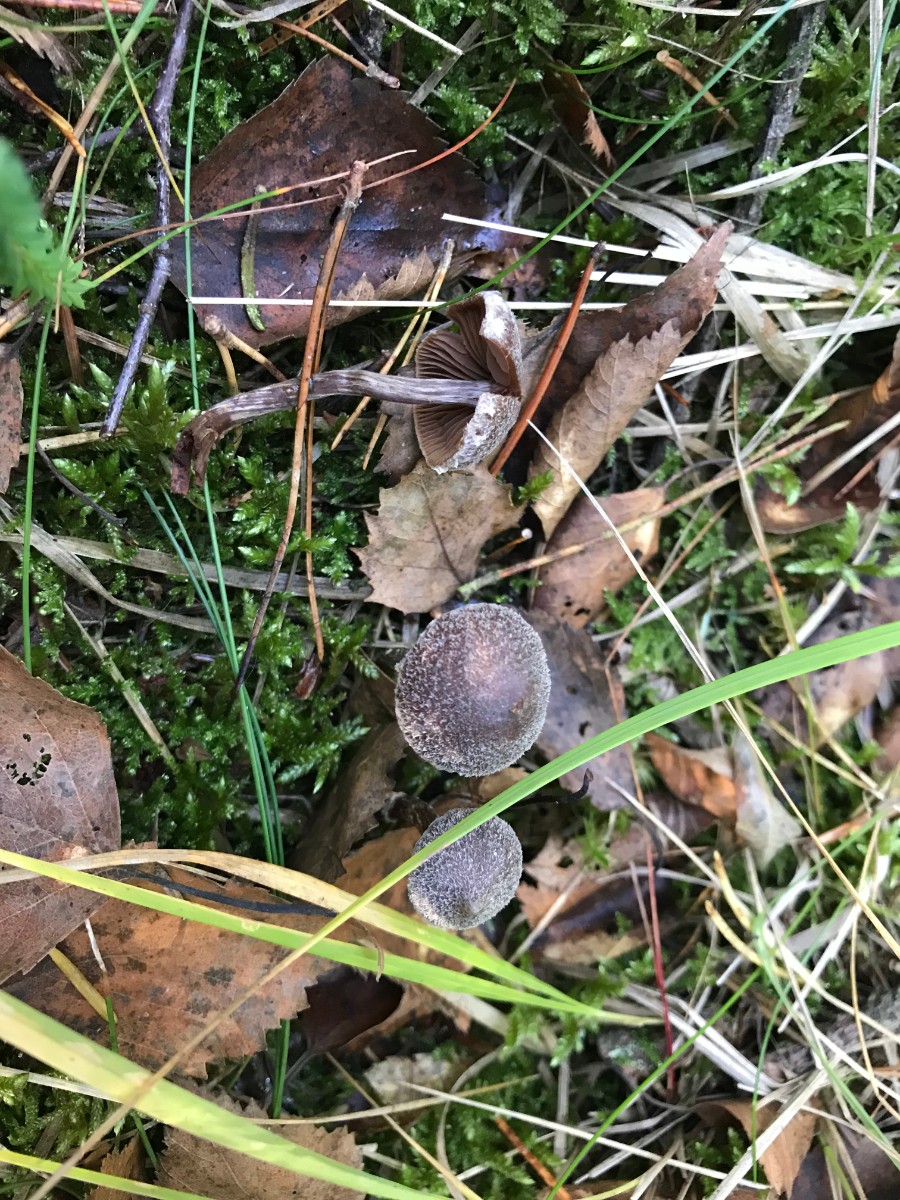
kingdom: Fungi
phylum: Basidiomycota
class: Agaricomycetes
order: Agaricales
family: Cortinariaceae
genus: Cortinarius
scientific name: Cortinarius flexipes
